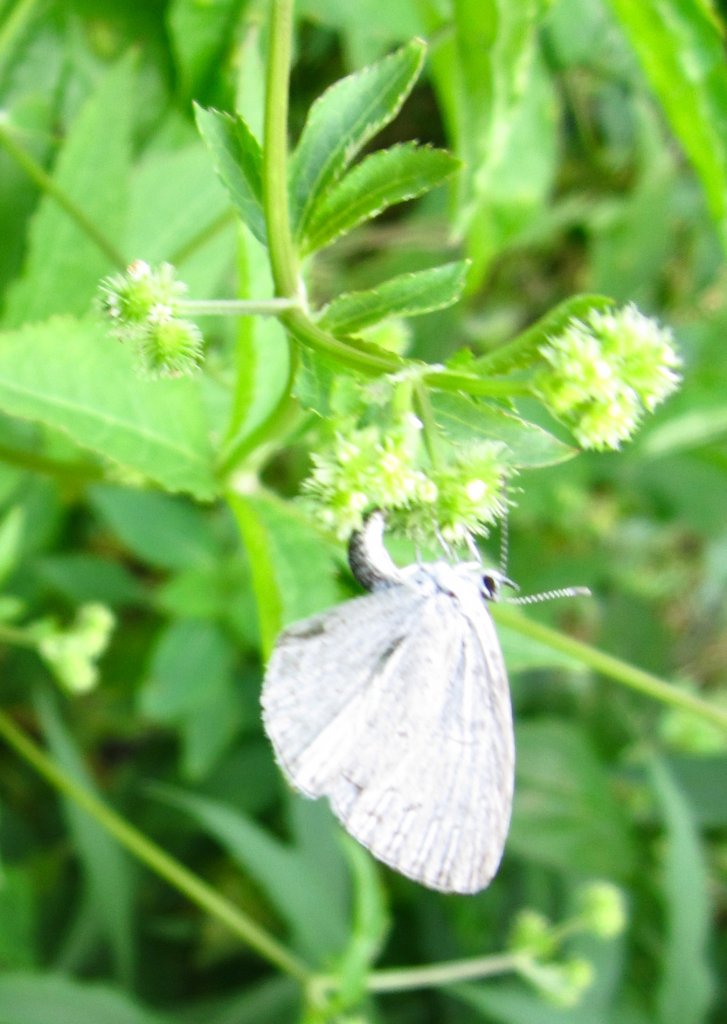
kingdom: Animalia
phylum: Arthropoda
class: Insecta
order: Lepidoptera
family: Lycaenidae
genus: Cyaniris
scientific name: Cyaniris neglecta
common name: Summer Azure
